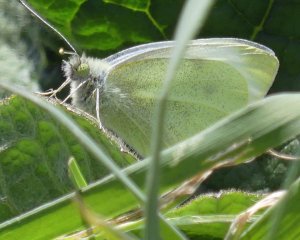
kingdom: Animalia
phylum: Arthropoda
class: Insecta
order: Lepidoptera
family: Pieridae
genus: Pieris
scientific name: Pieris rapae
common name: Cabbage White
